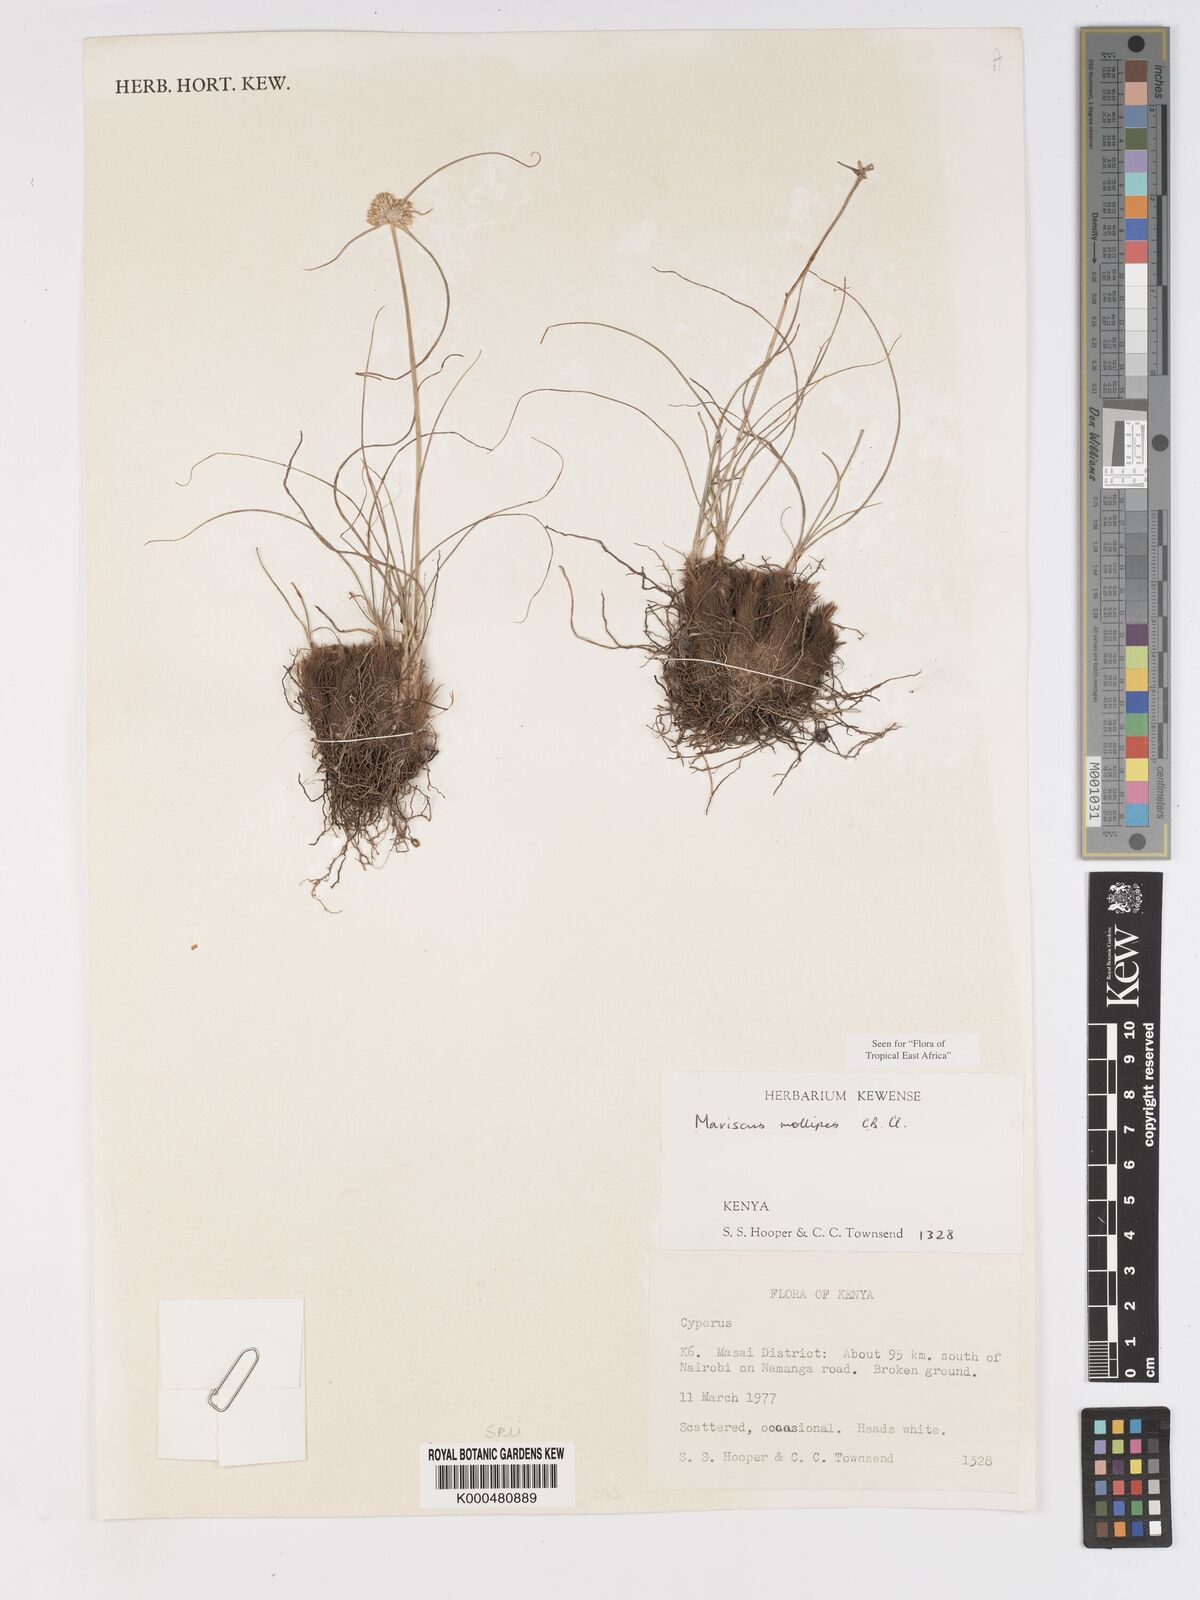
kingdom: Plantae
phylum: Tracheophyta
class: Liliopsida
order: Poales
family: Cyperaceae
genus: Cyperus
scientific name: Cyperus mollipes
